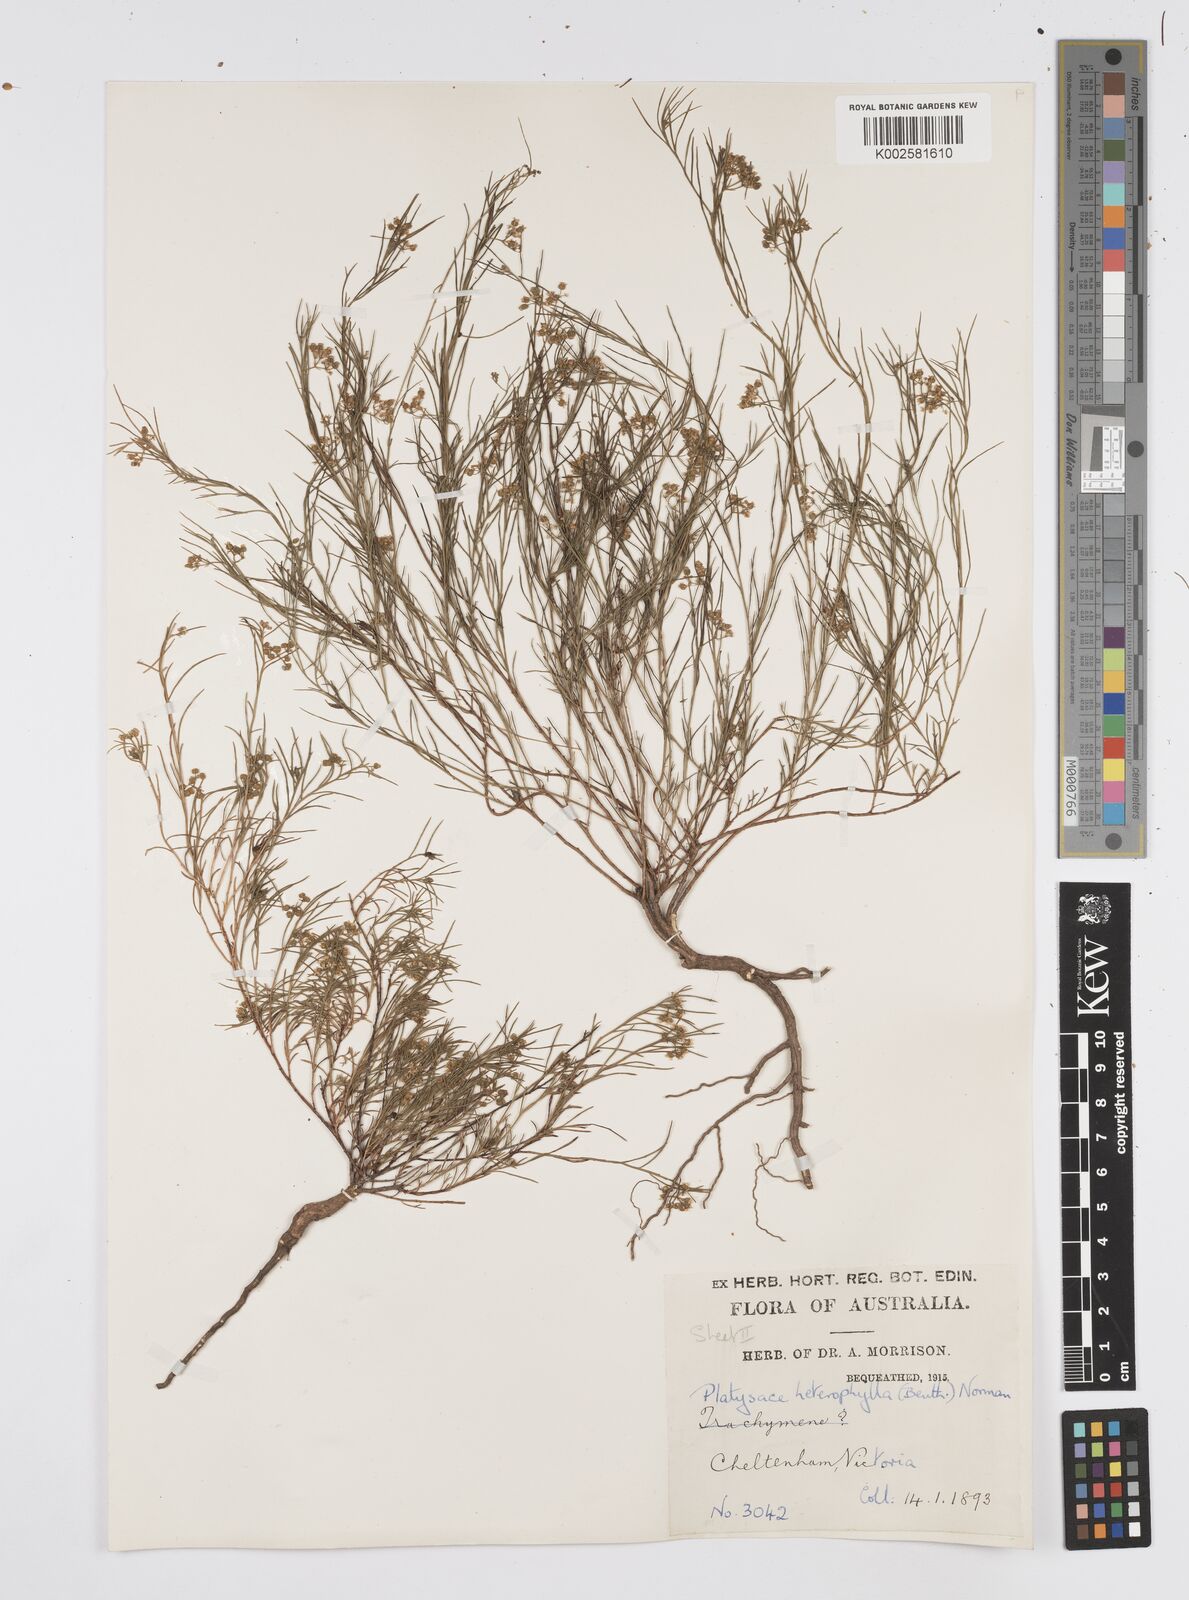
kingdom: Plantae
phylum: Tracheophyta
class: Magnoliopsida
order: Apiales
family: Apiaceae
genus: Platysace
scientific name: Platysace heterophylla
